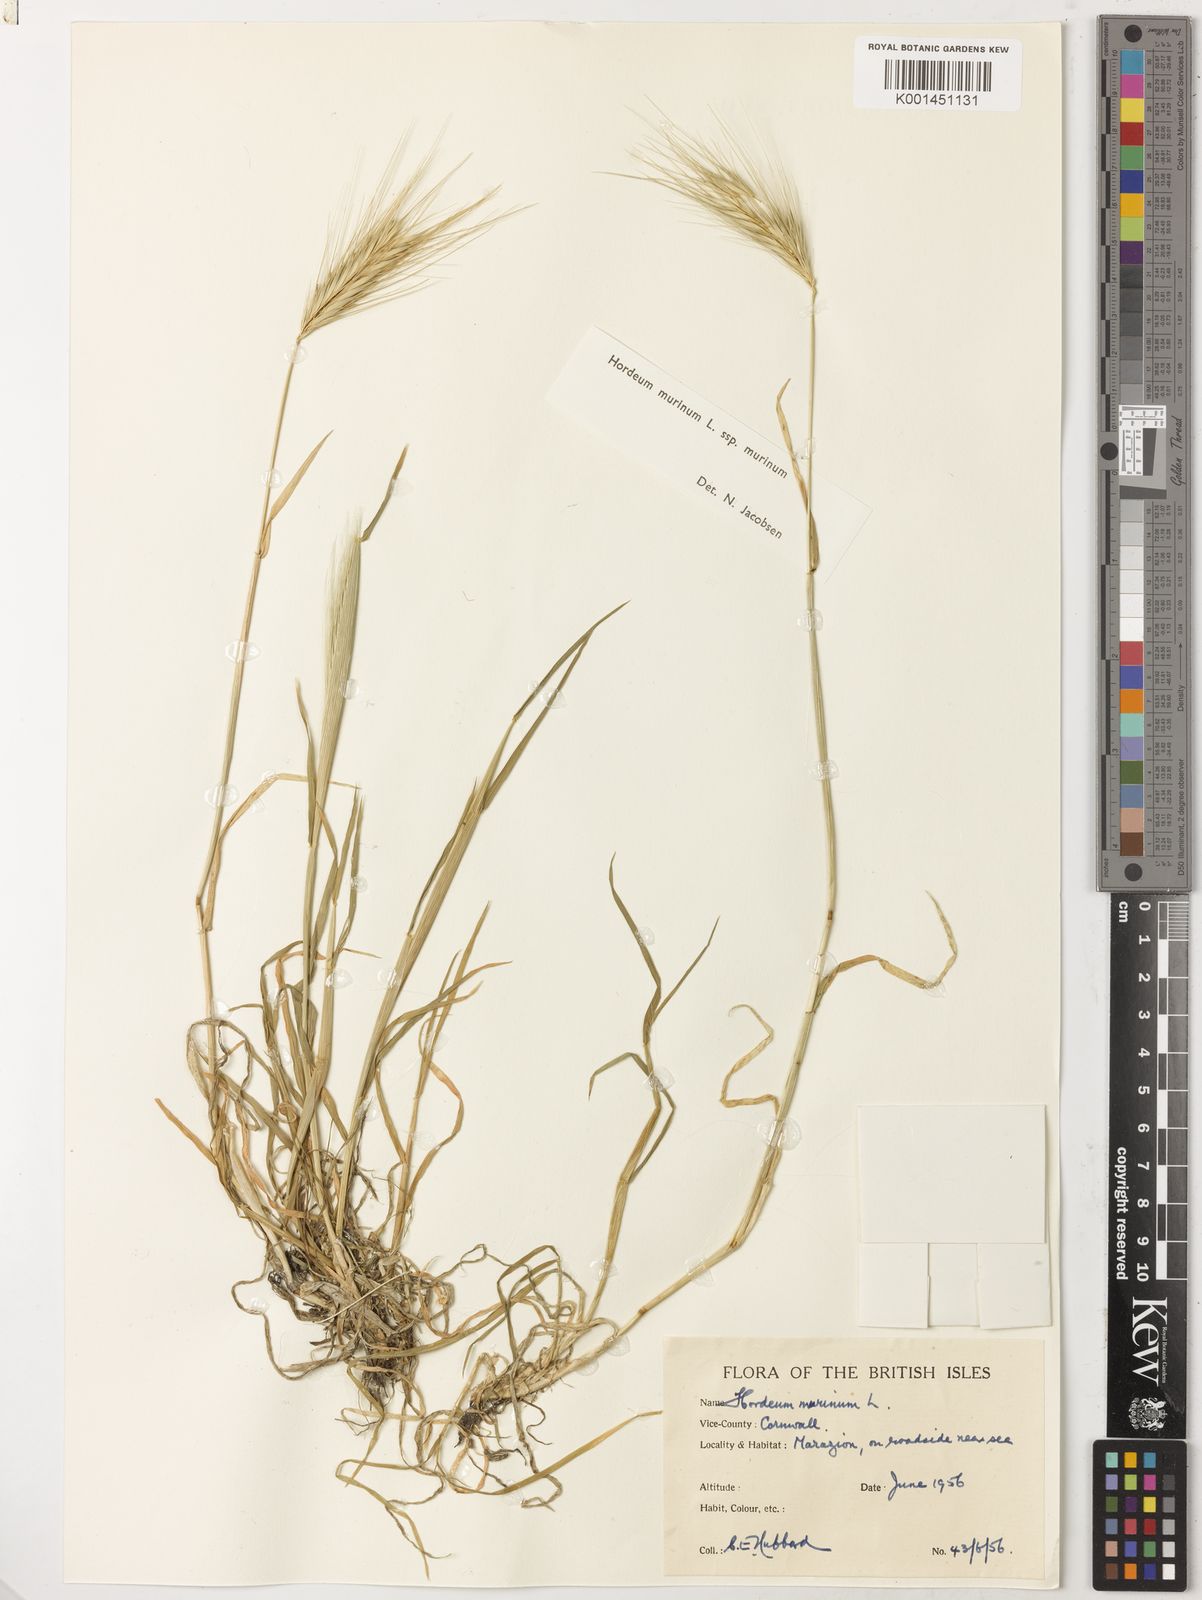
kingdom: Plantae
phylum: Tracheophyta
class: Liliopsida
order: Poales
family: Poaceae
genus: Hordeum
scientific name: Hordeum murinum
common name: Wall barley
